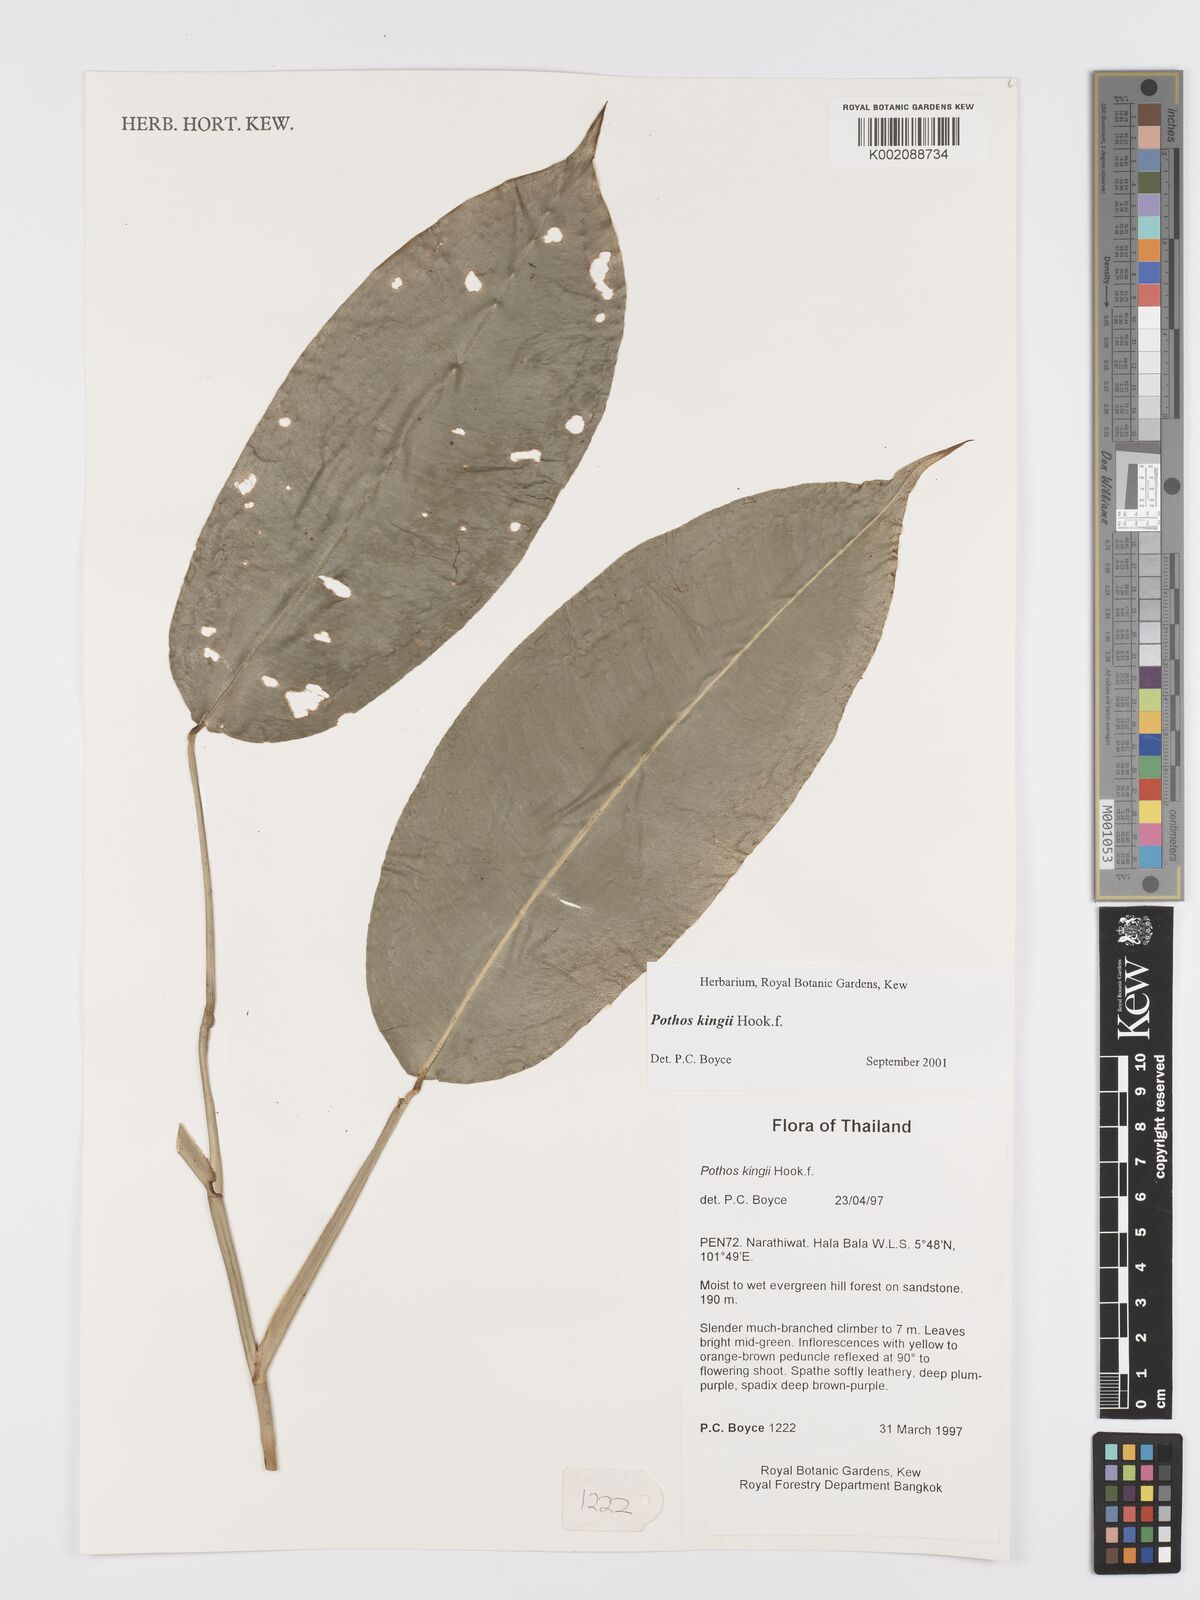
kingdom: Plantae
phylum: Tracheophyta
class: Liliopsida
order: Alismatales
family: Araceae
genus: Pothos
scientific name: Pothos kingii
